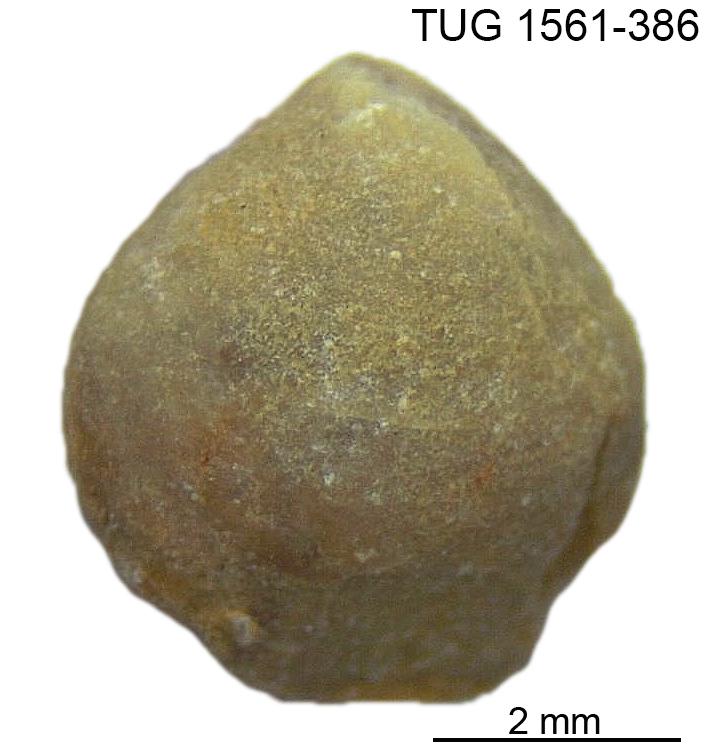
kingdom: Animalia
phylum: Brachiopoda
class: Rhynchonellata
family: Nucleospiridae
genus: Nucleospira
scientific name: Nucleospira Spirifer pisum
